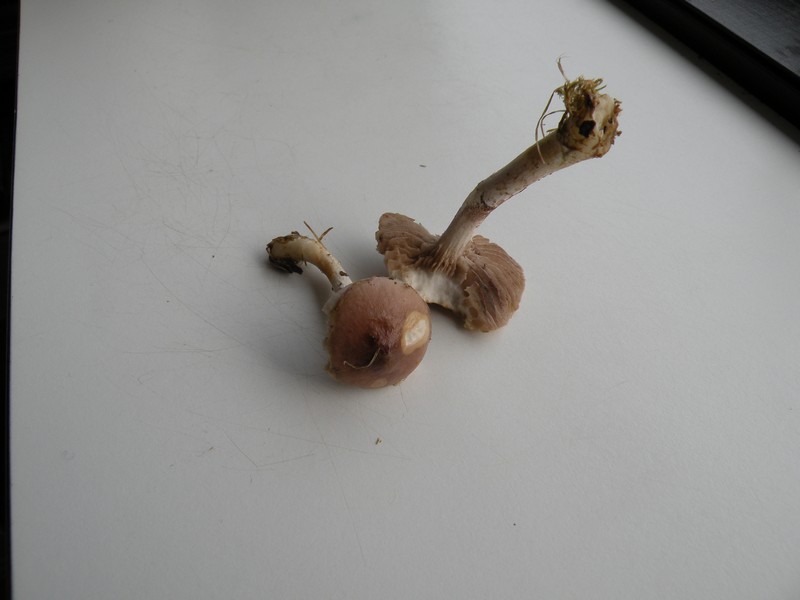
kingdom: Fungi
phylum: Basidiomycota
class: Agaricomycetes
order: Agaricales
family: Strophariaceae
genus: Stropharia
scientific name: Stropharia inuncta
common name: lillabrun bredblad
